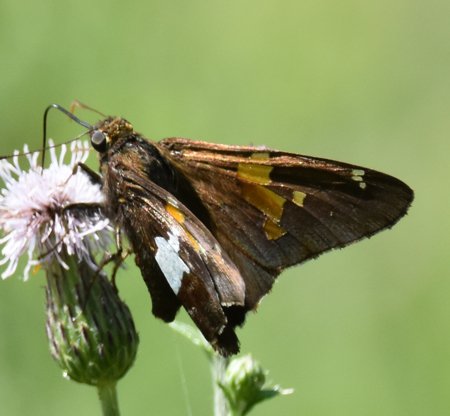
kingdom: Animalia
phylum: Arthropoda
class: Insecta
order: Lepidoptera
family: Hesperiidae
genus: Epargyreus
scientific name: Epargyreus clarus
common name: Silver-spotted Skipper
